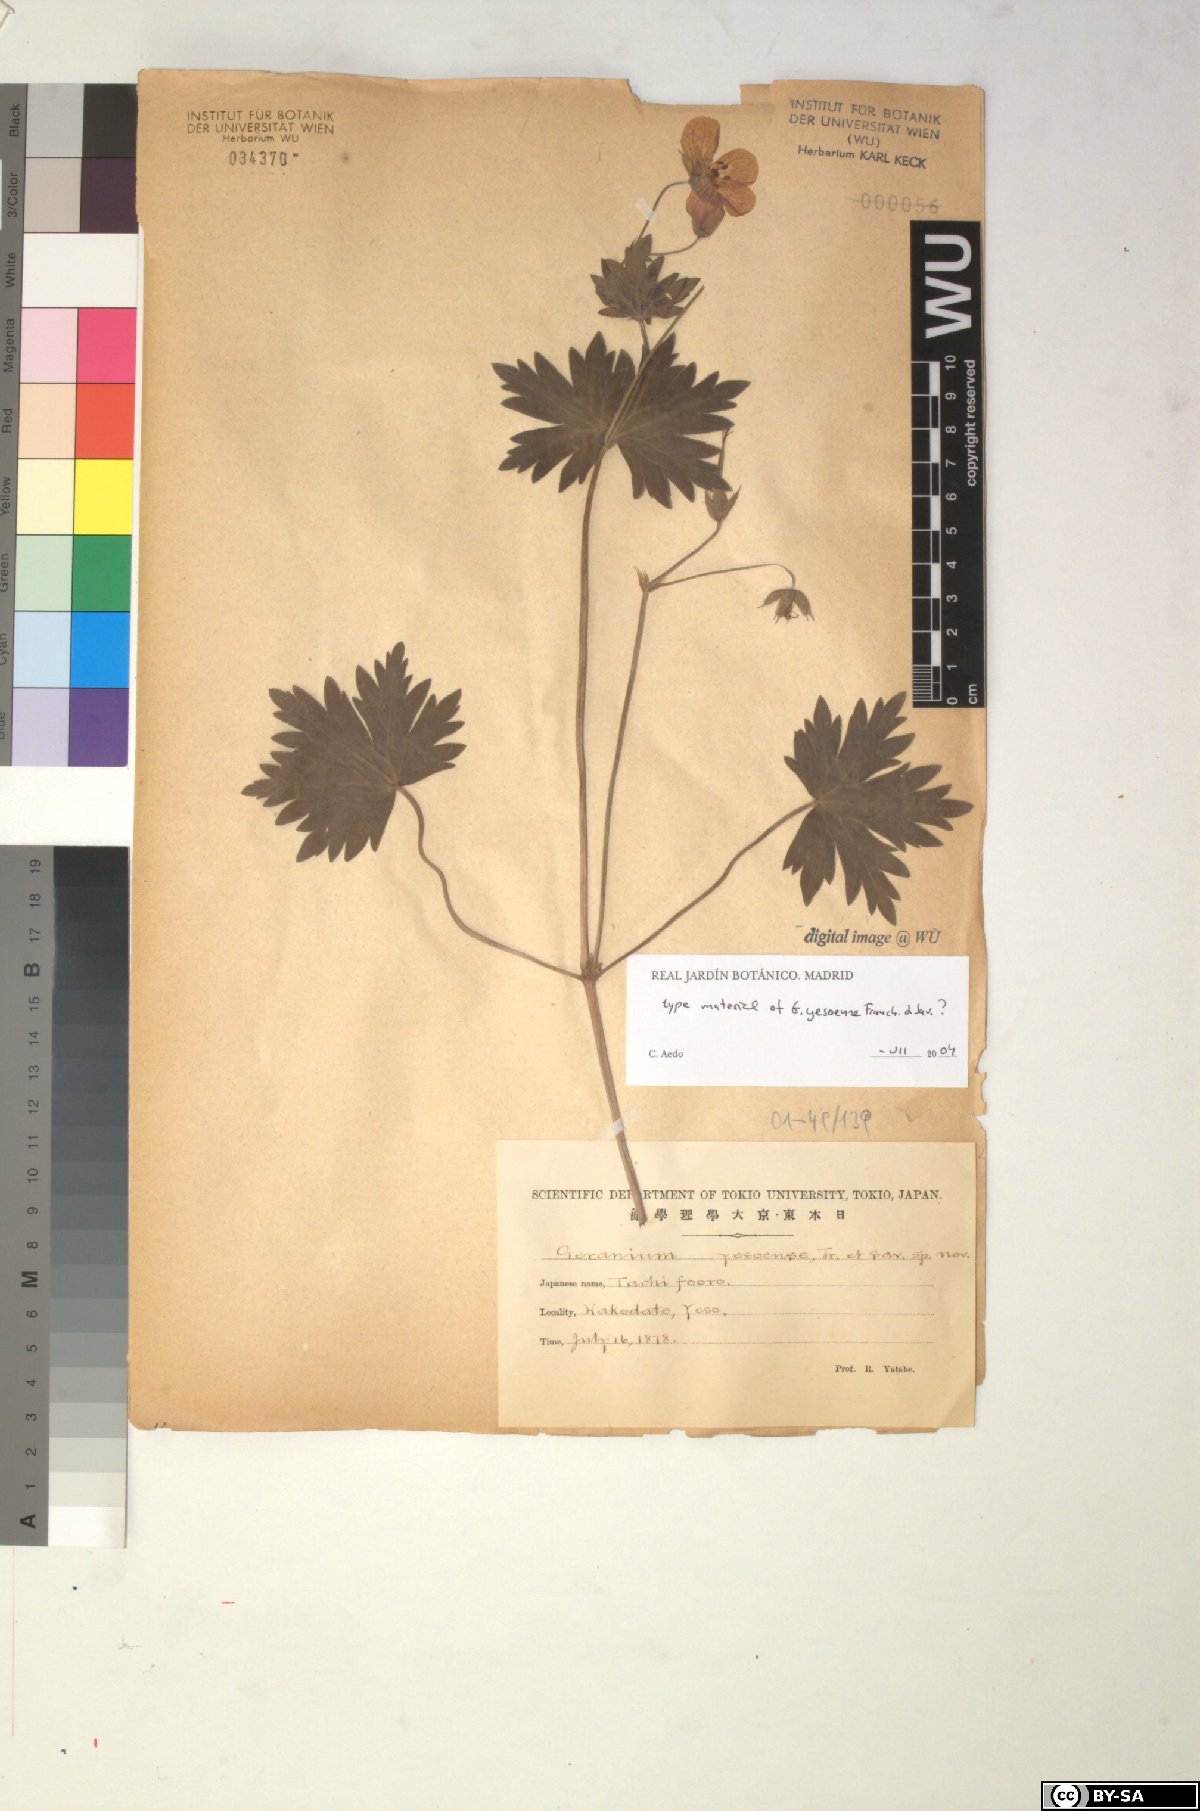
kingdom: Plantae
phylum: Tracheophyta
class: Magnoliopsida
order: Geraniales
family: Geraniaceae
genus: Geranium
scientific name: Geranium yedoense
